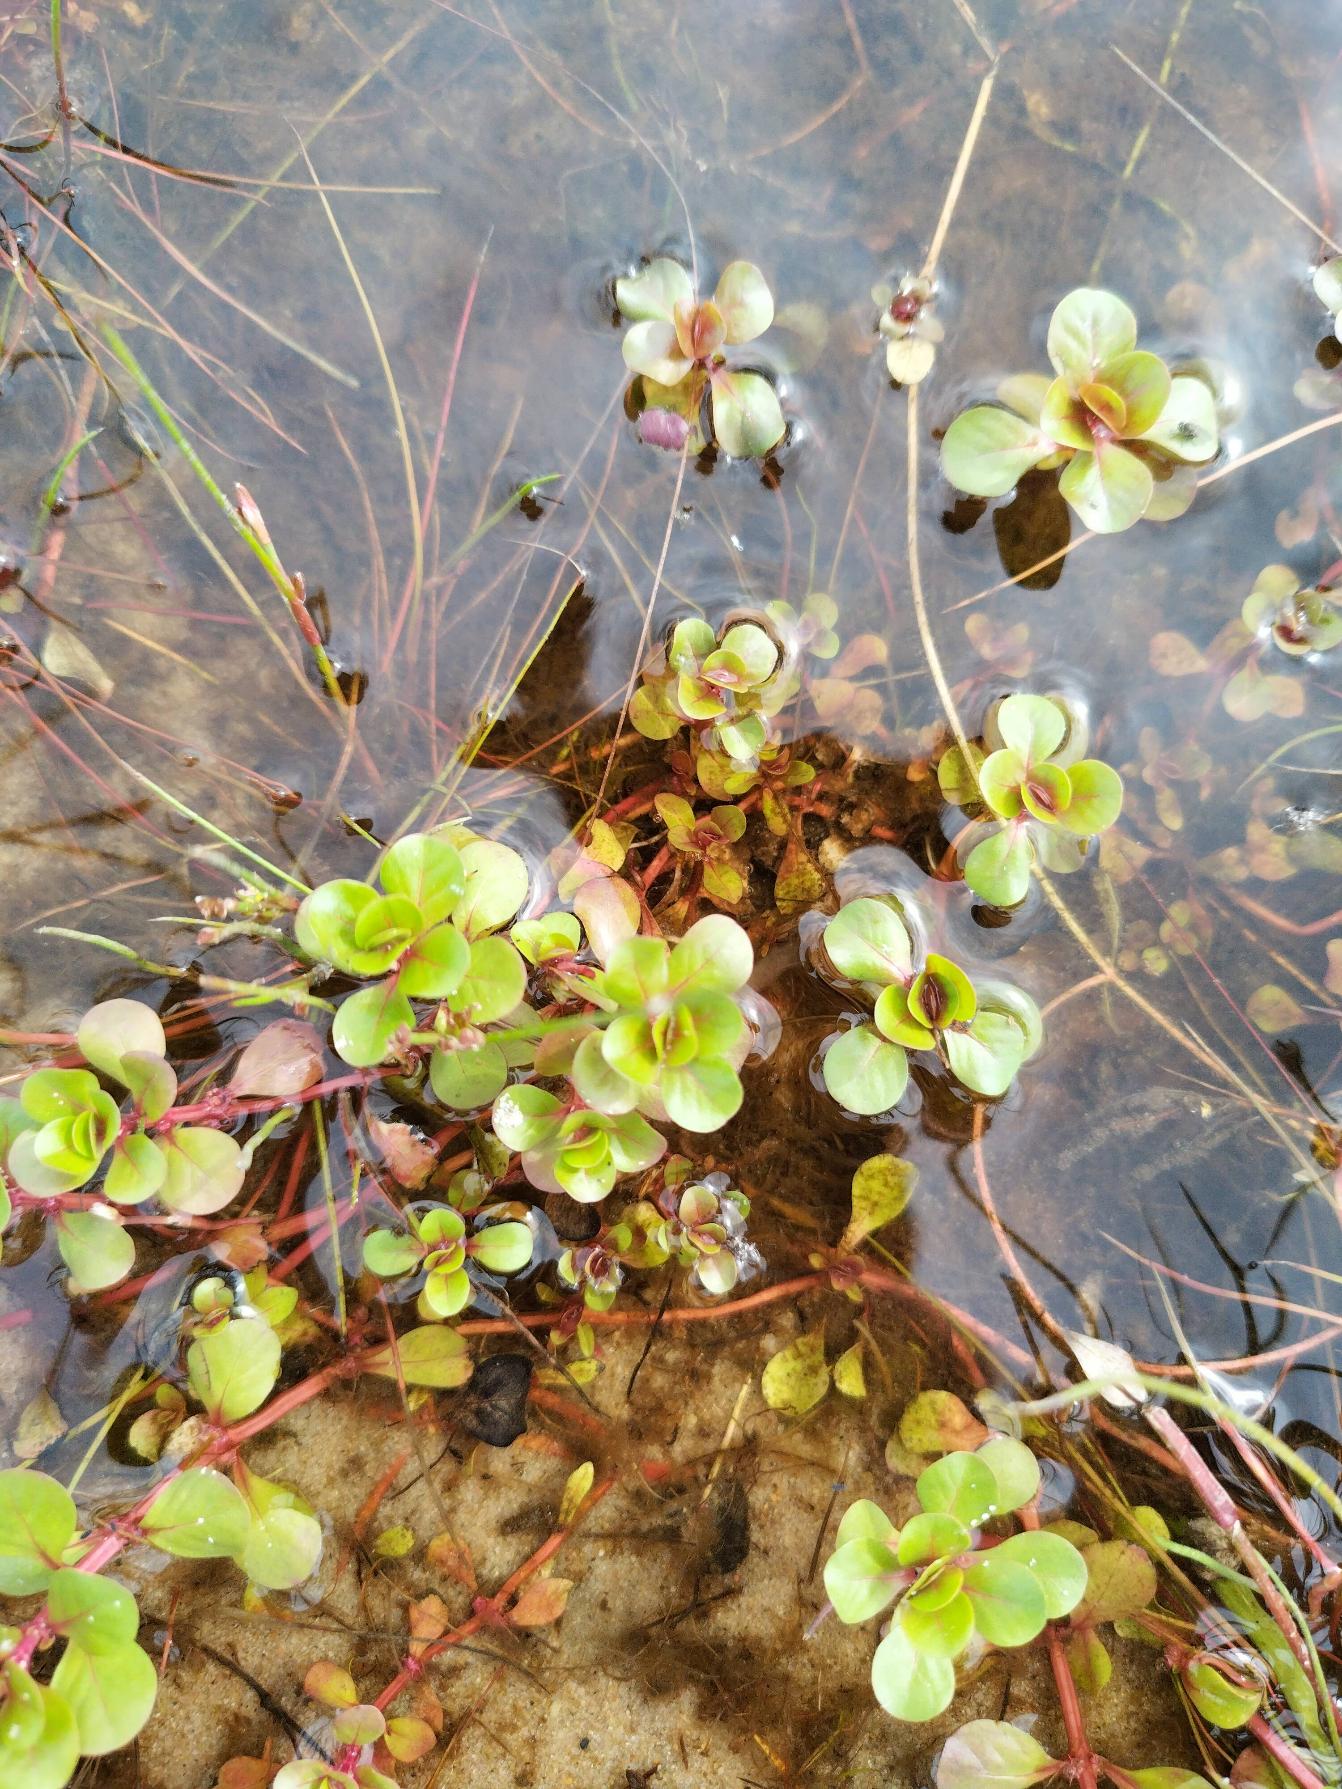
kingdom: Plantae
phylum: Tracheophyta
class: Magnoliopsida
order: Myrtales
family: Lythraceae
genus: Lythrum
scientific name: Lythrum portula
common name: Vandportulak
